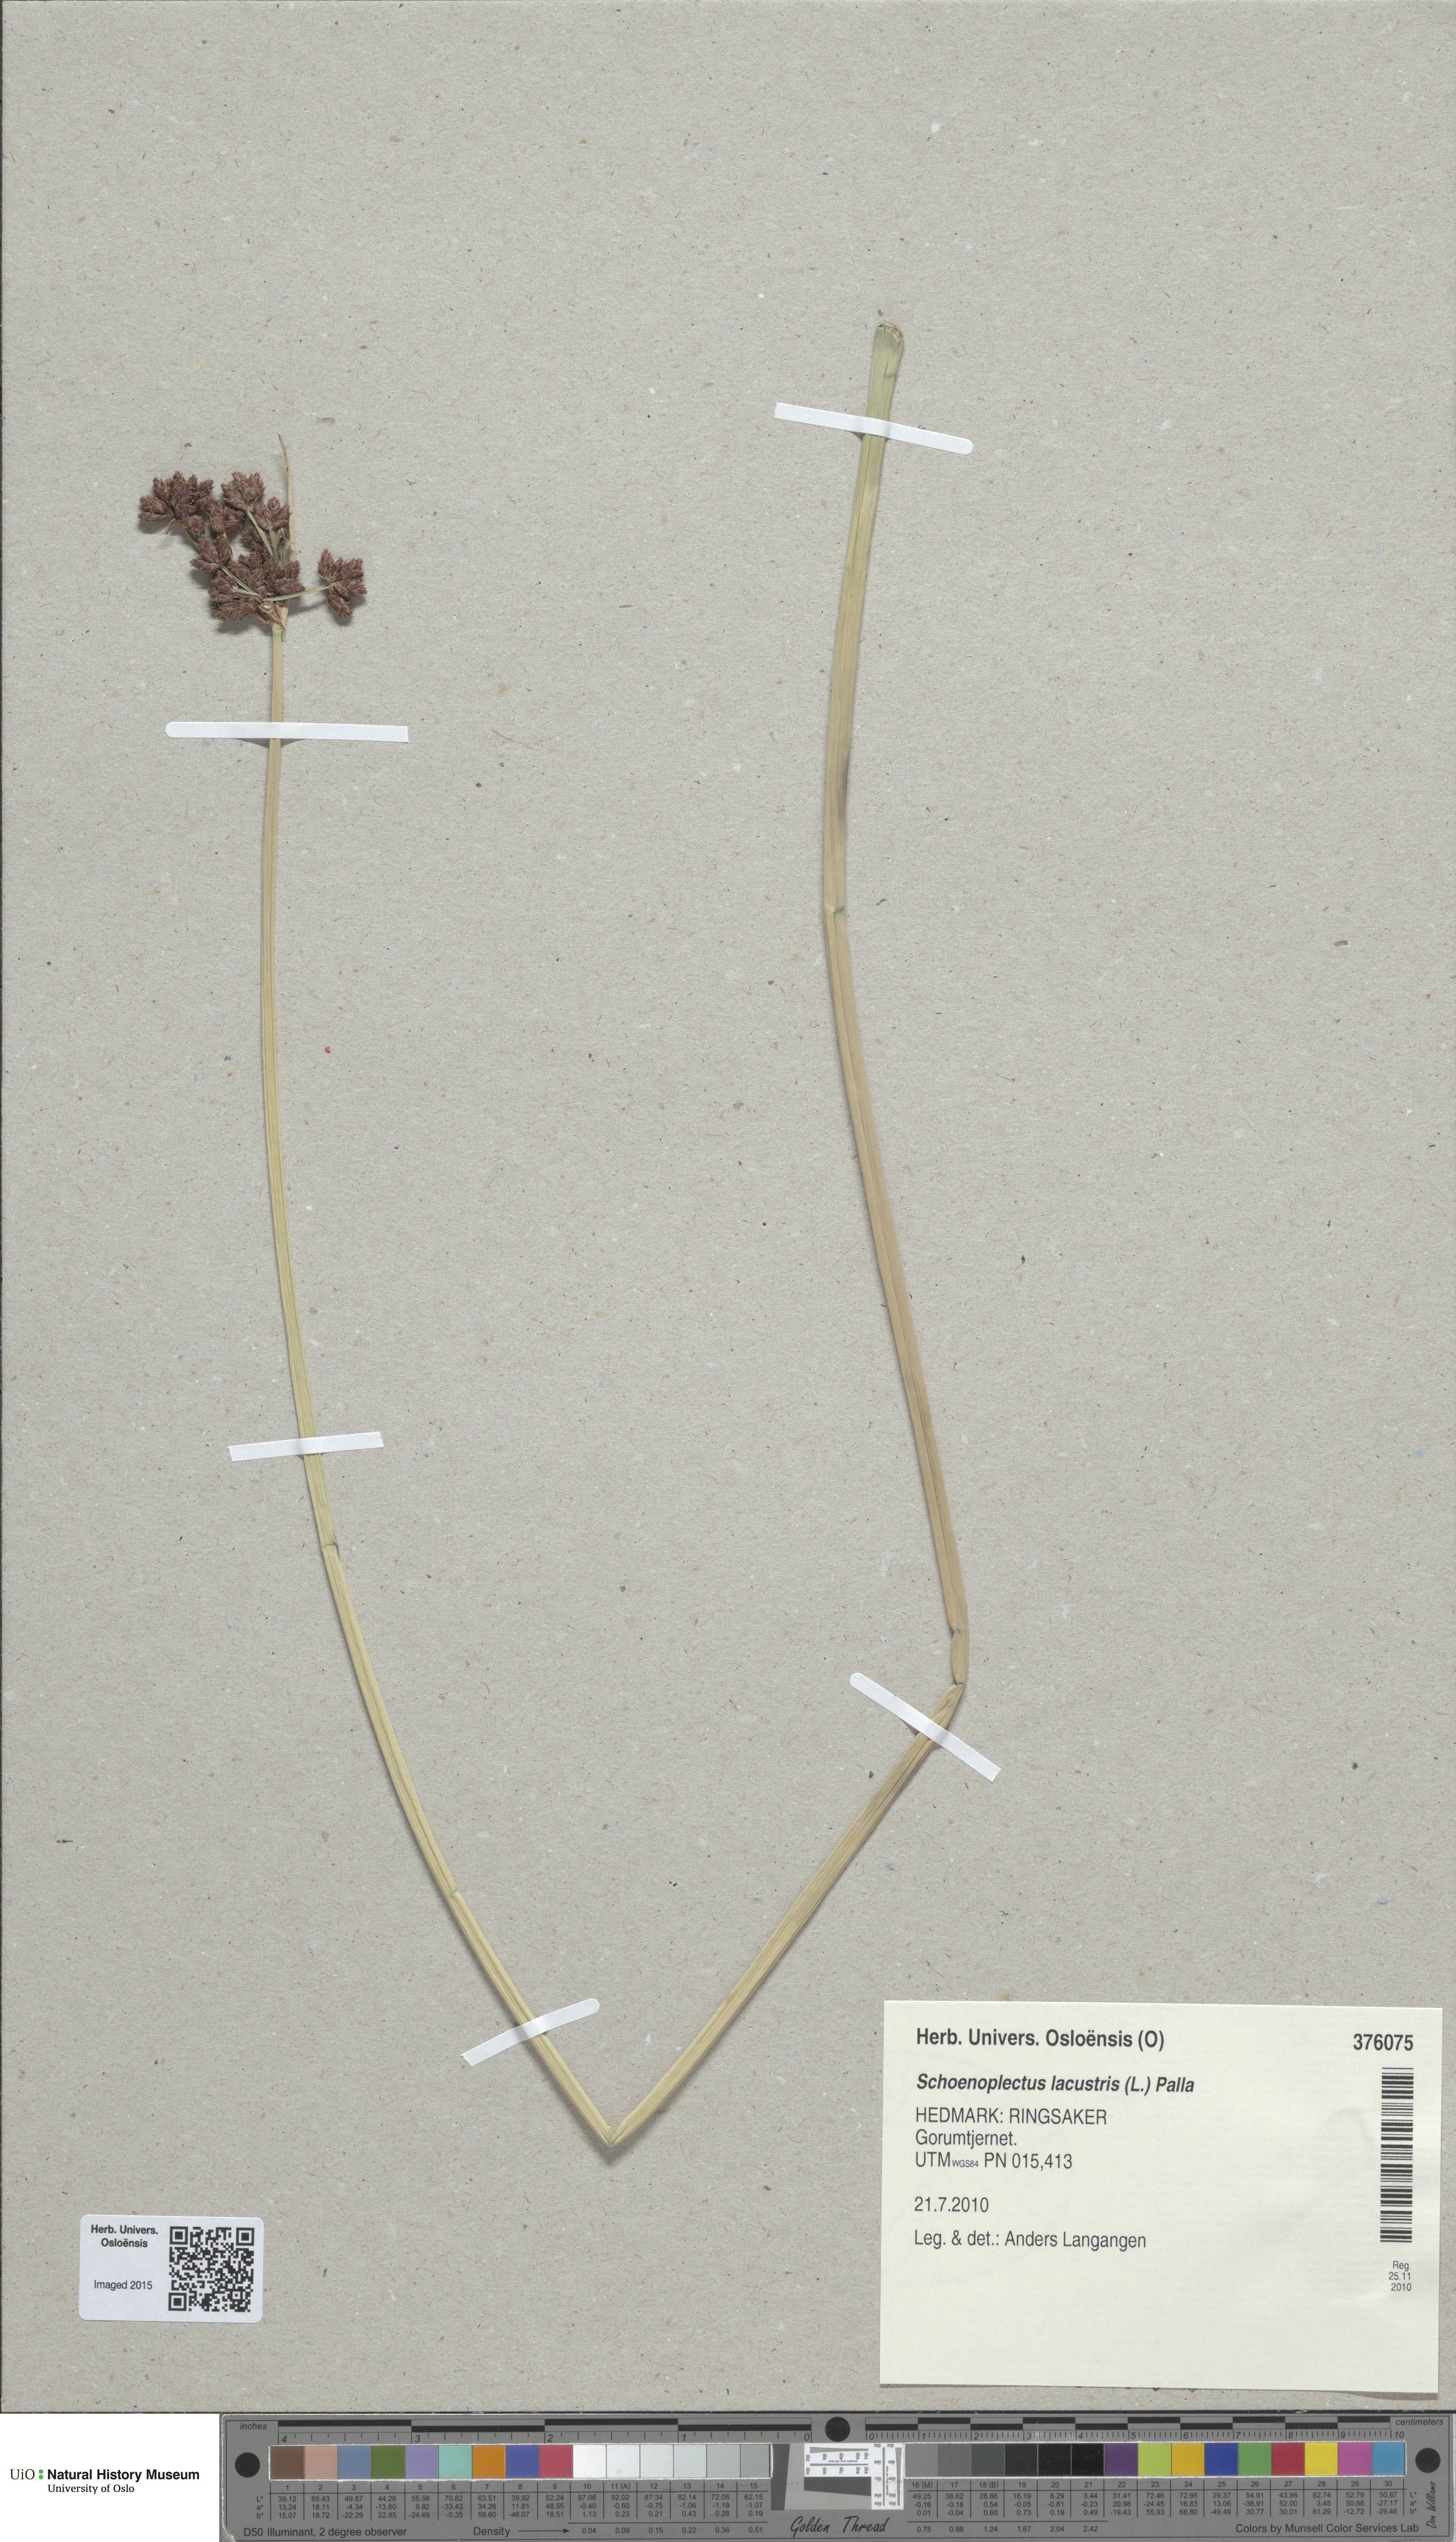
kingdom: Plantae
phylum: Tracheophyta
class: Liliopsida
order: Poales
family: Cyperaceae
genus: Schoenoplectus
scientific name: Schoenoplectus lacustris
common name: Common club-rush
